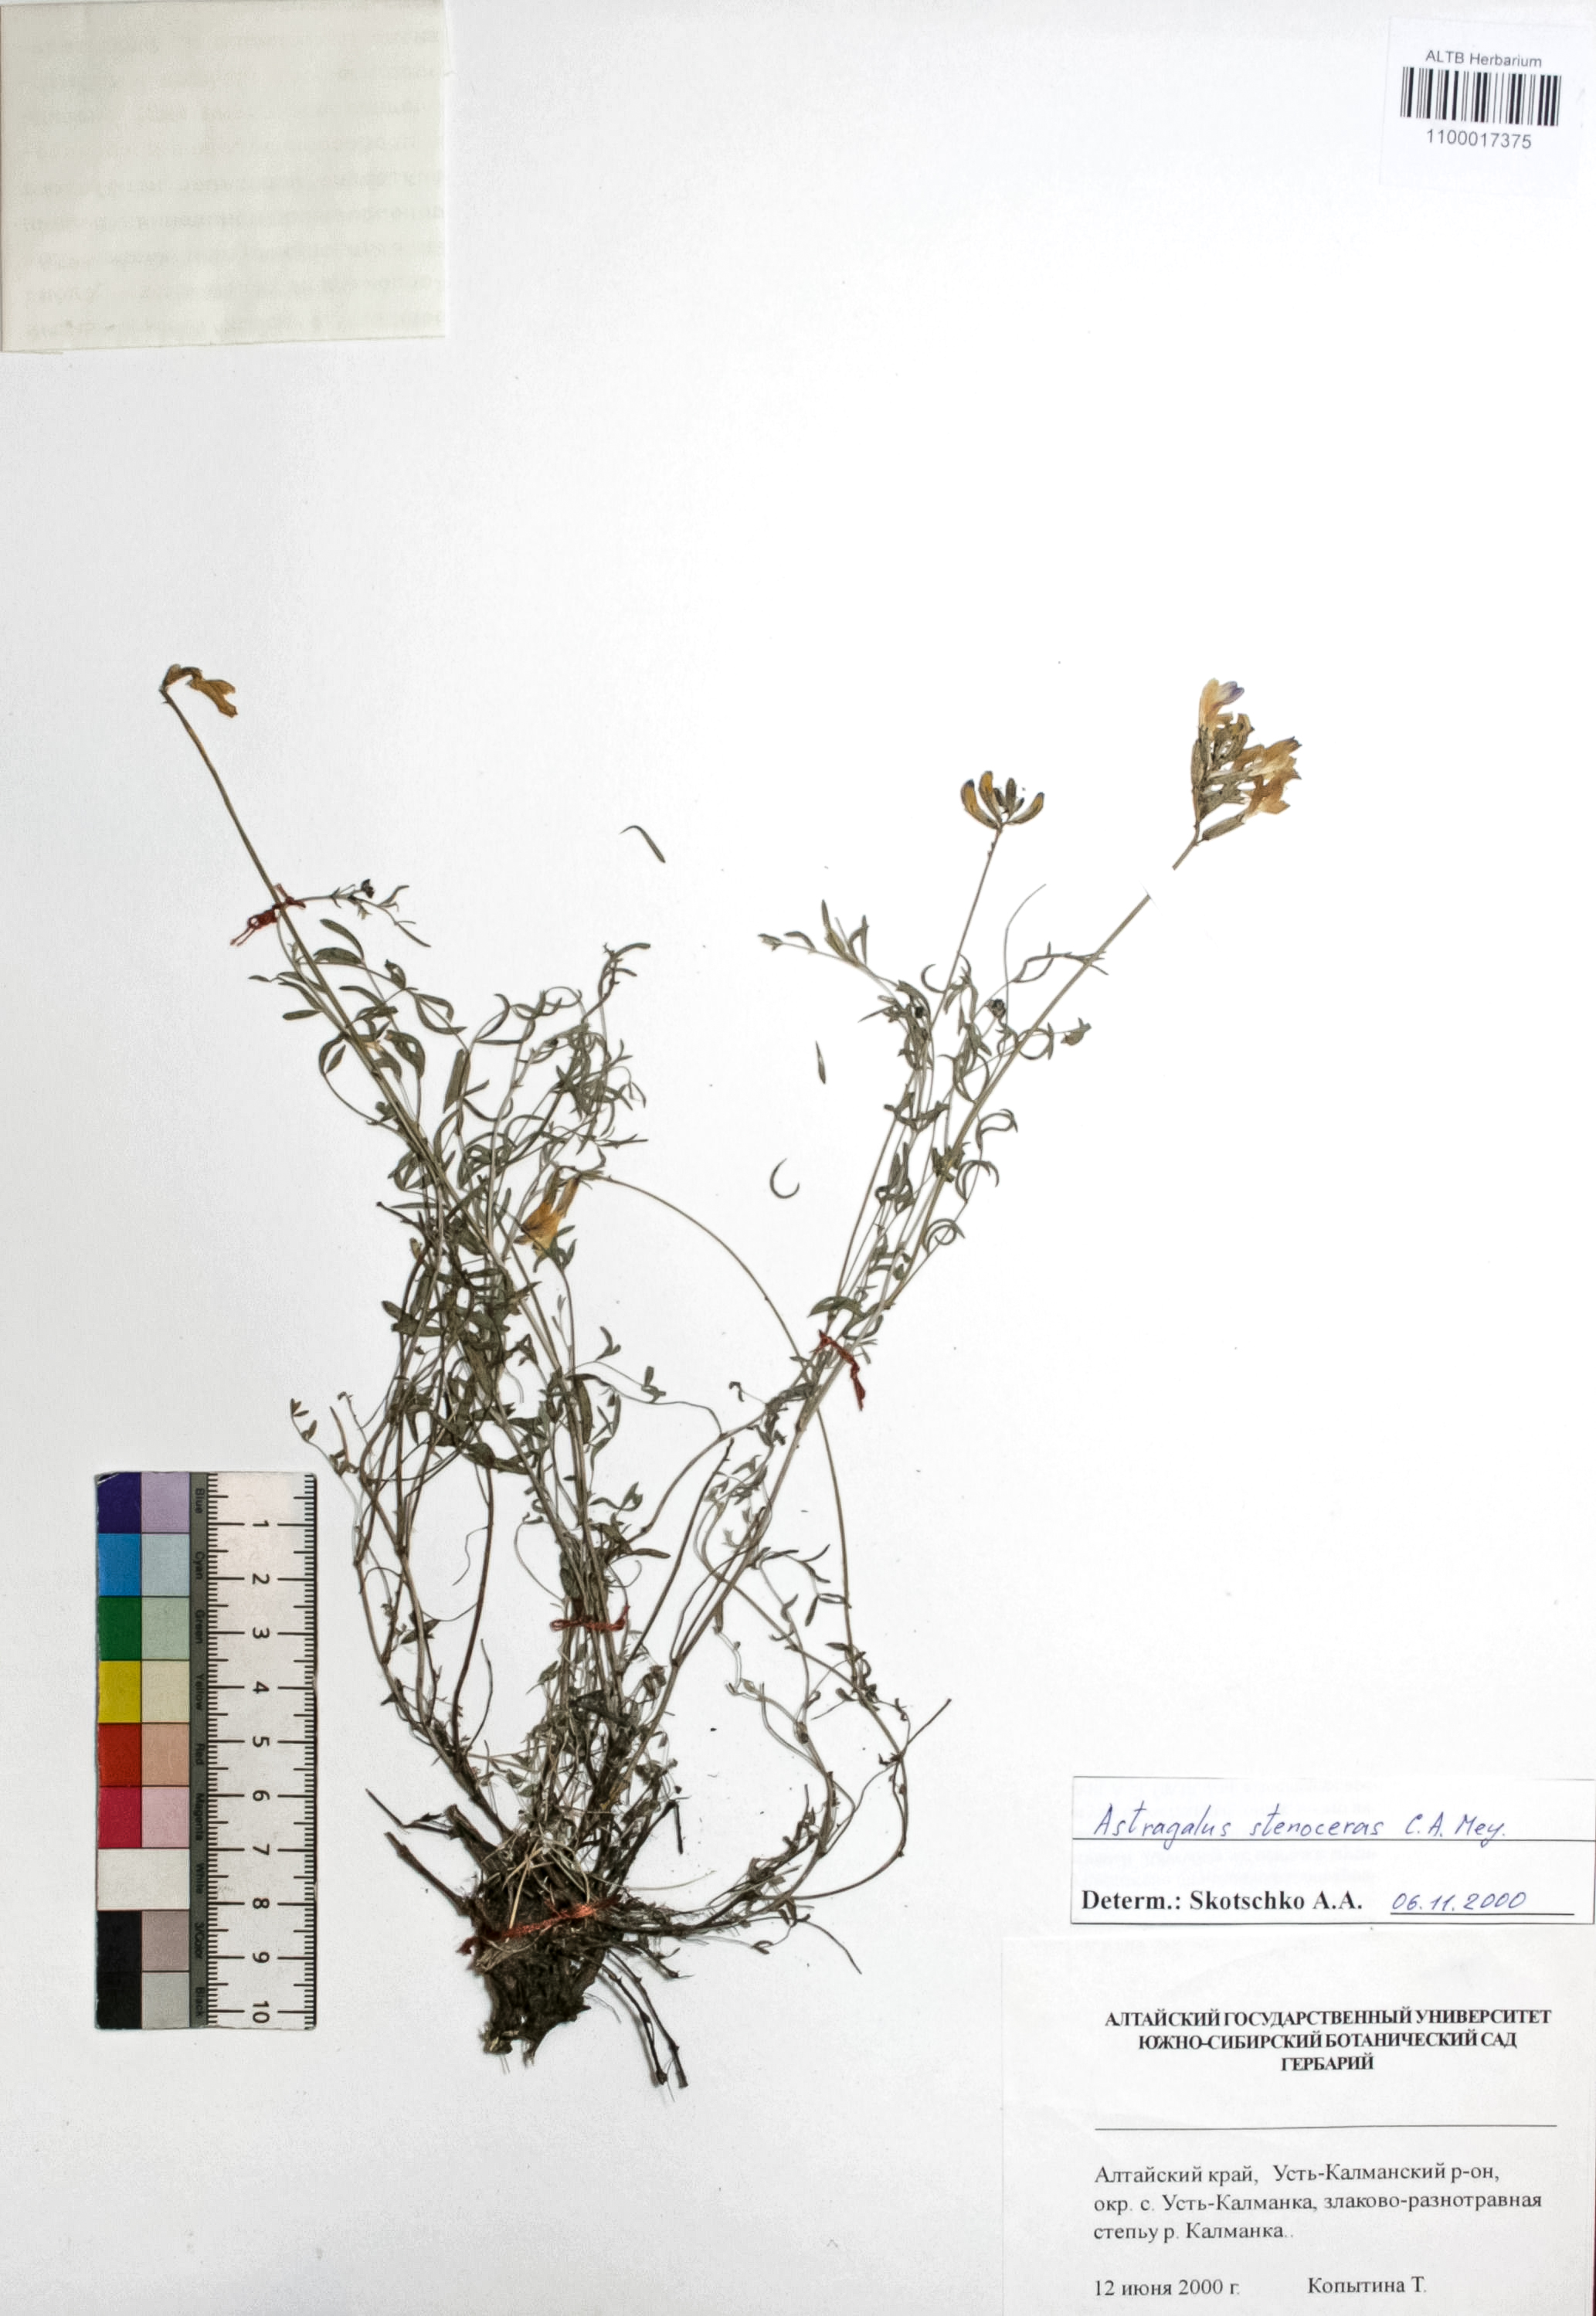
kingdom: Plantae
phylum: Tracheophyta
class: Magnoliopsida
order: Fabales
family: Fabaceae
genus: Astragalus
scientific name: Astragalus stenoceras
